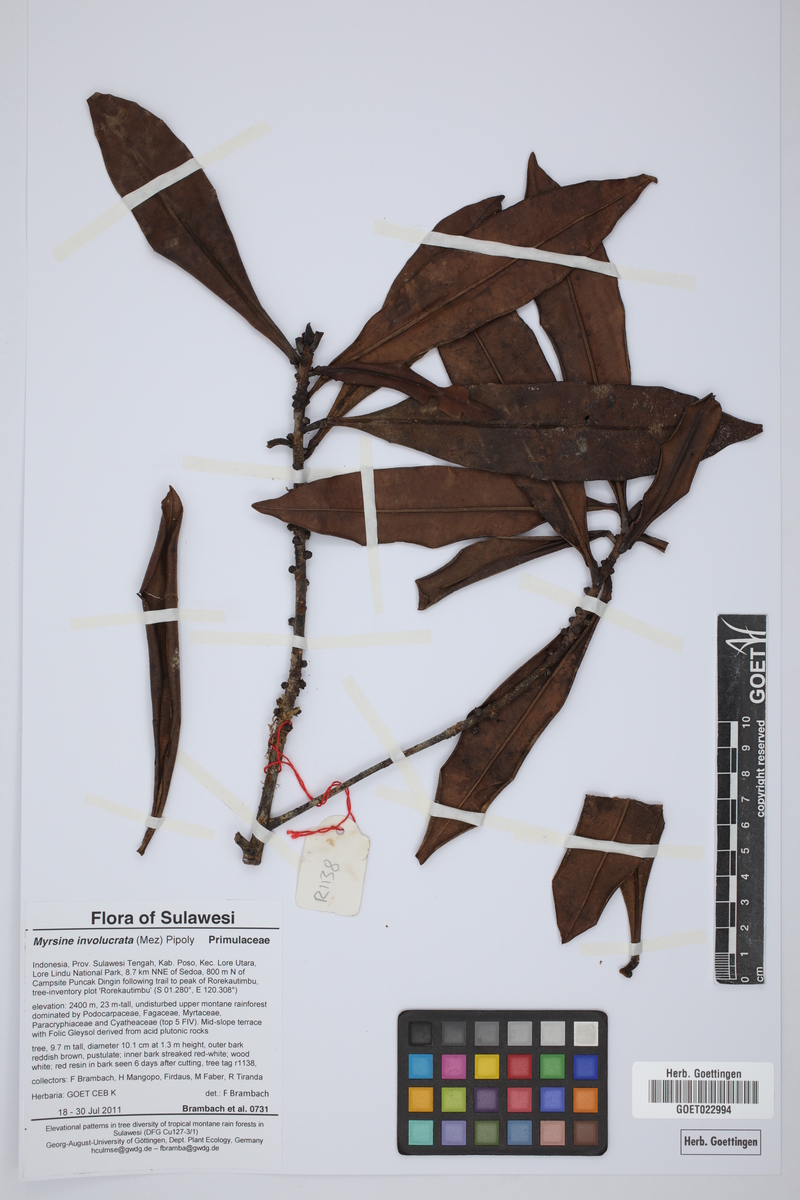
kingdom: Plantae
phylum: Tracheophyta
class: Magnoliopsida
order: Ericales
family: Primulaceae
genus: Myrsine
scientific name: Myrsine involucrata
